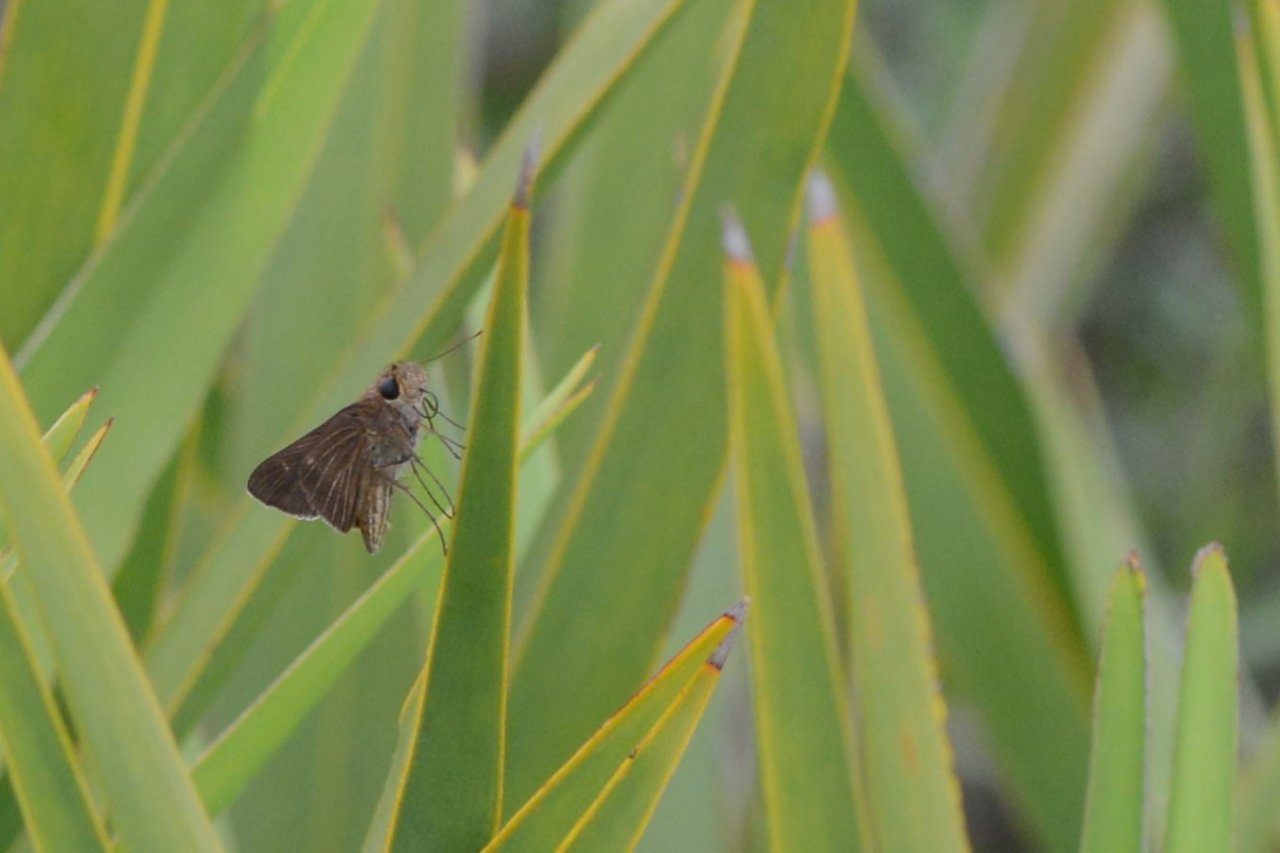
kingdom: Animalia
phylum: Arthropoda
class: Insecta
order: Lepidoptera
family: Hesperiidae
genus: Panoquina
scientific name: Panoquina ocola
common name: Ocola Skipper
